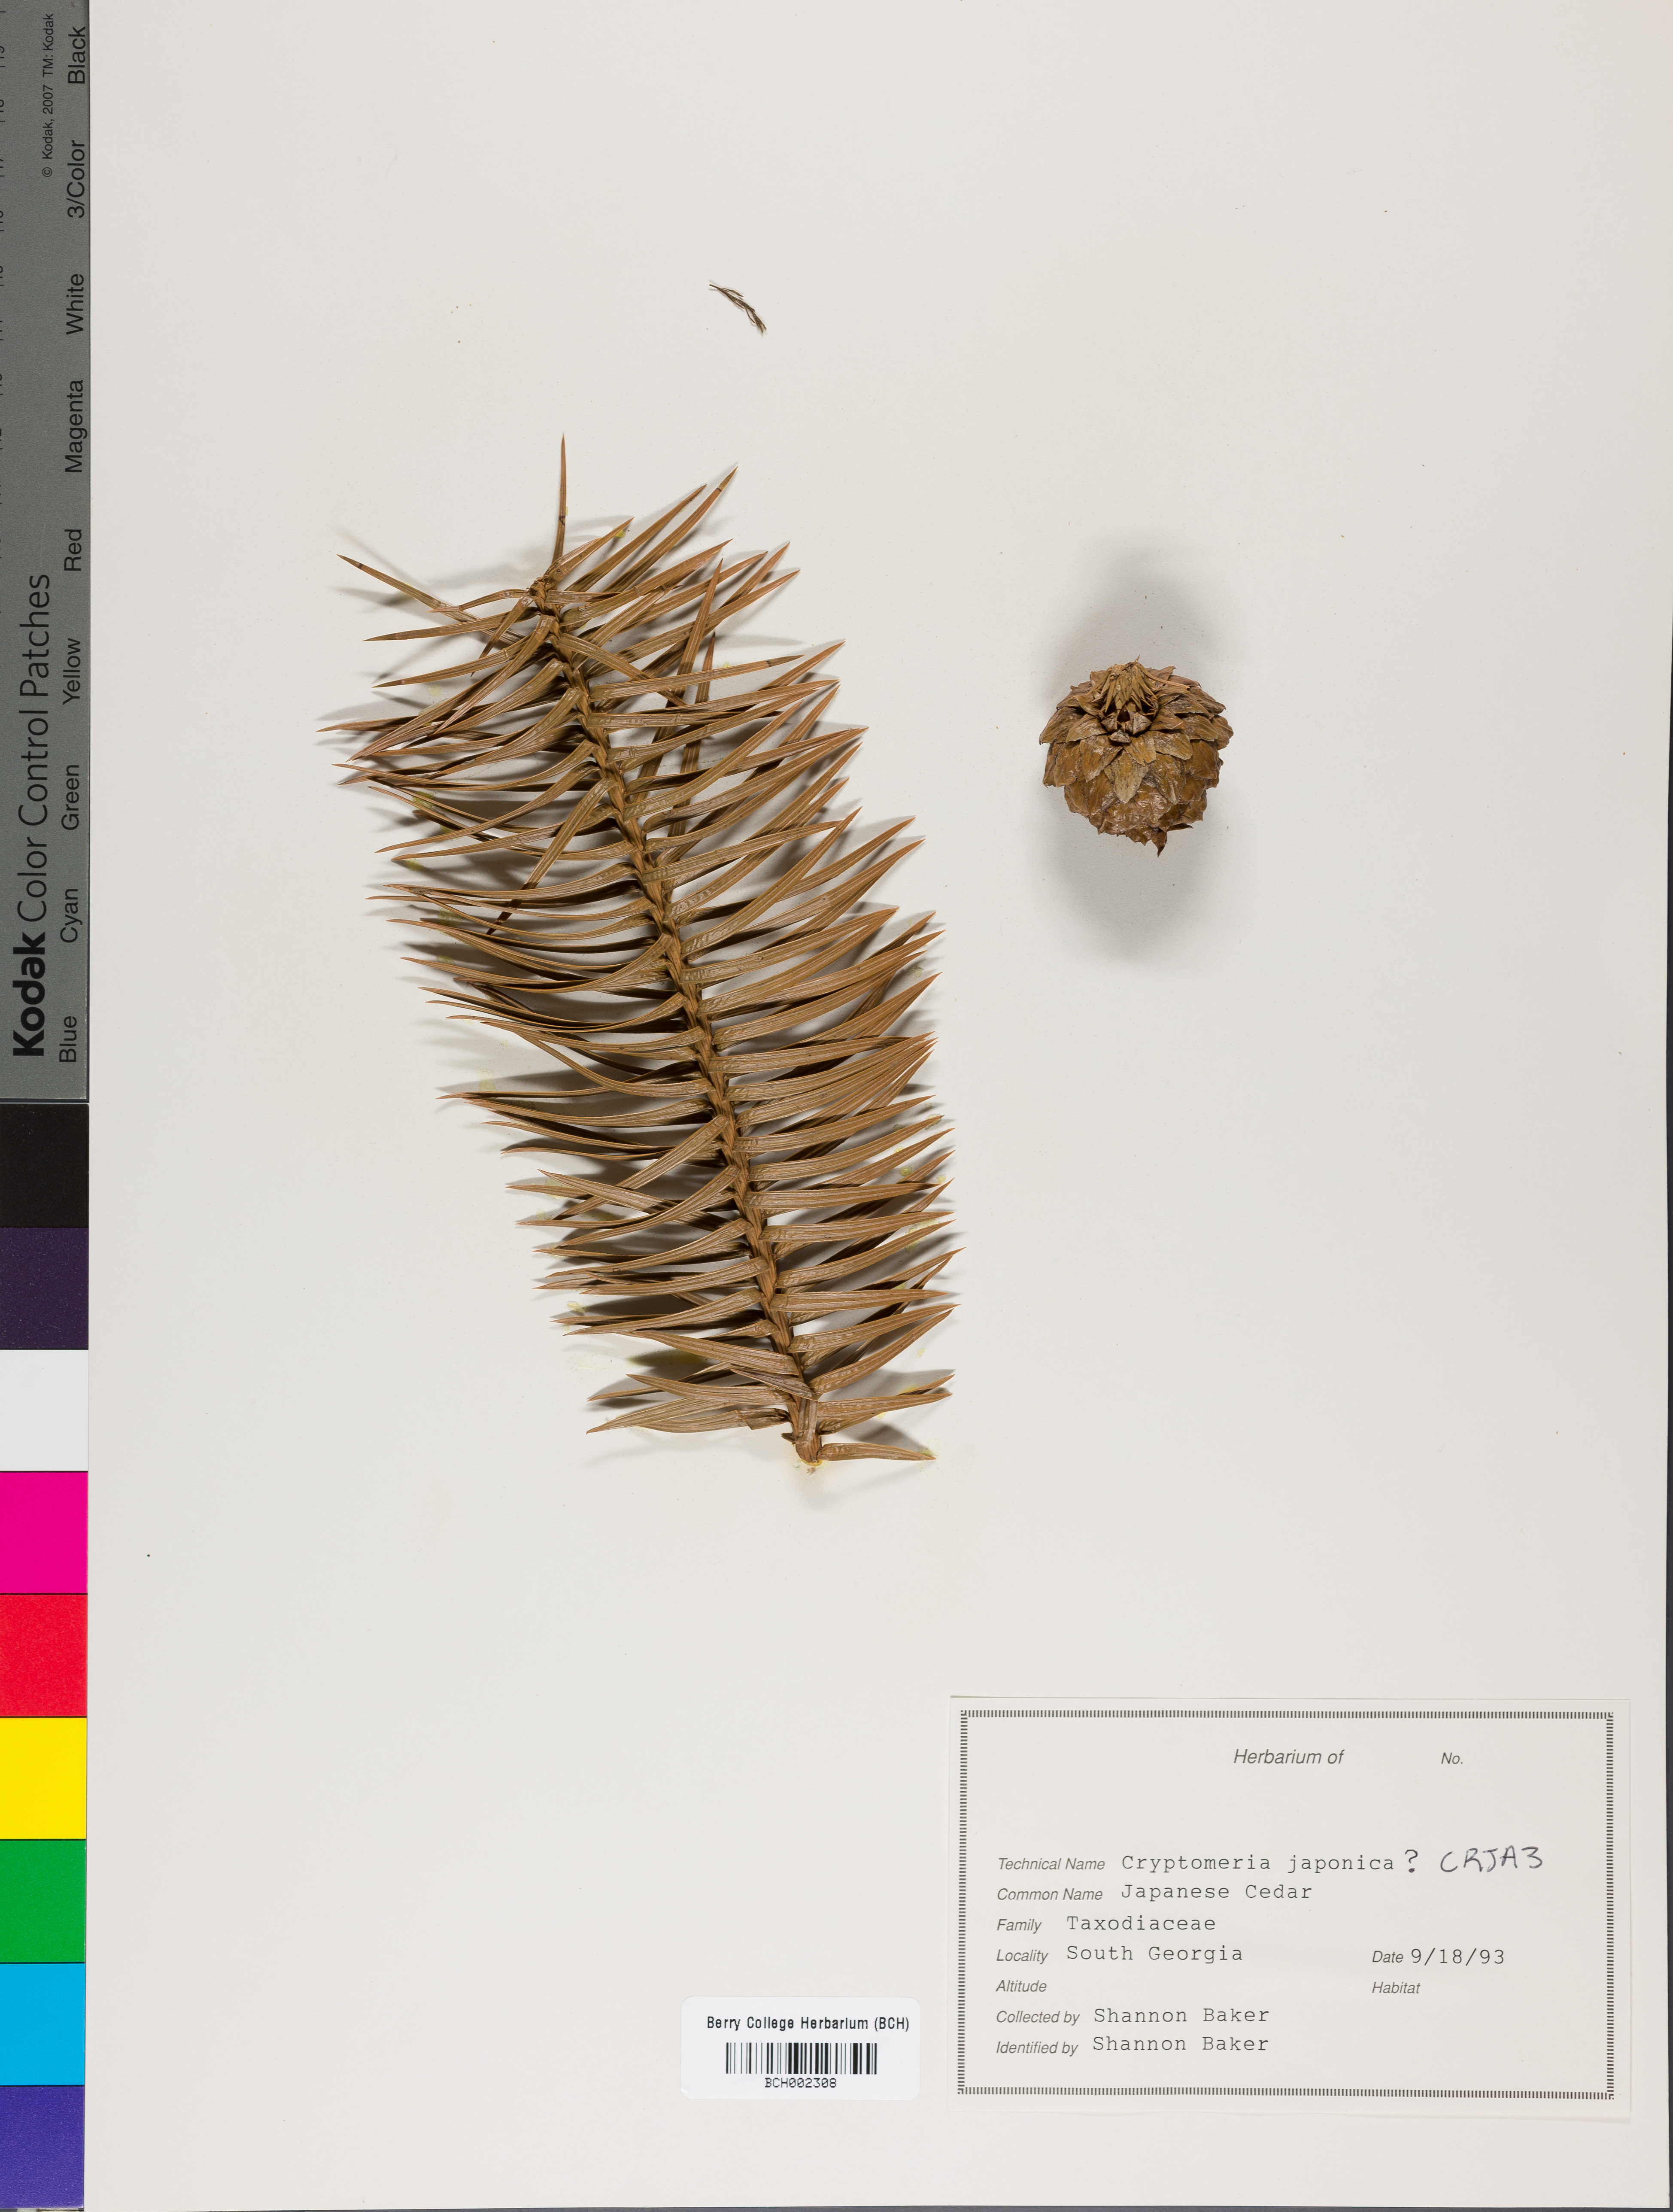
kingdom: Plantae
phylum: Tracheophyta
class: Pinopsida
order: Pinales
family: Cupressaceae
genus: Cryptomeria
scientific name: Cryptomeria japonica
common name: Japanese cedar
